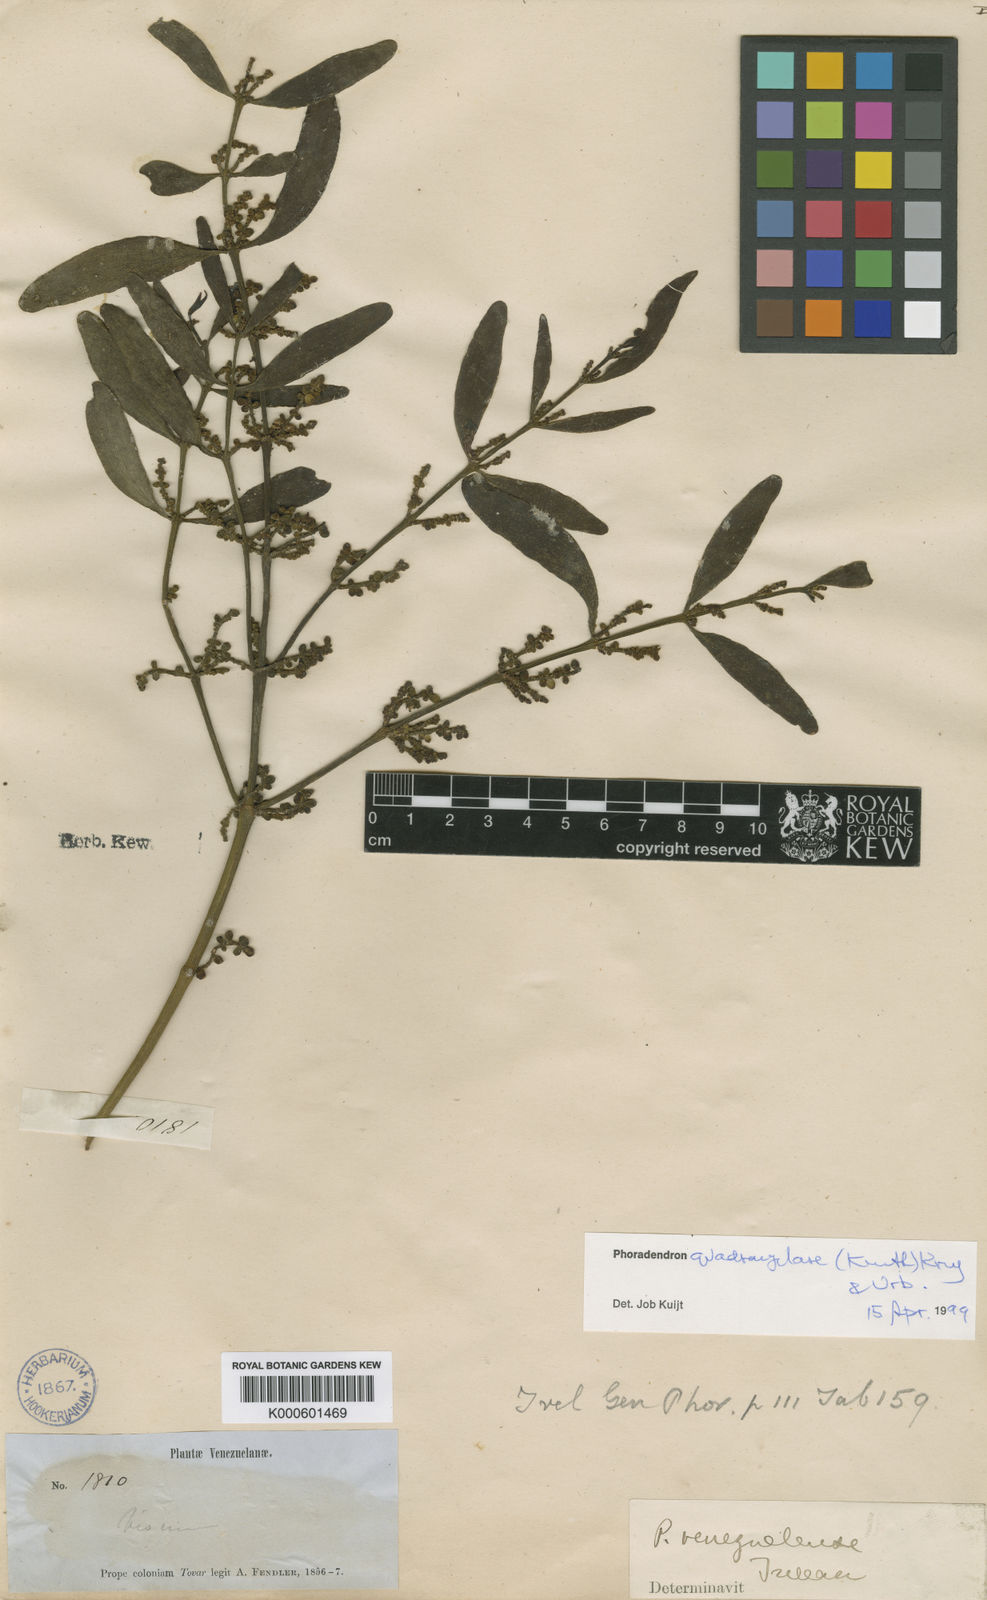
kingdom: Plantae
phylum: Tracheophyta
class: Magnoliopsida
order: Santalales
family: Viscaceae
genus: Phoradendron
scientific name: Phoradendron
